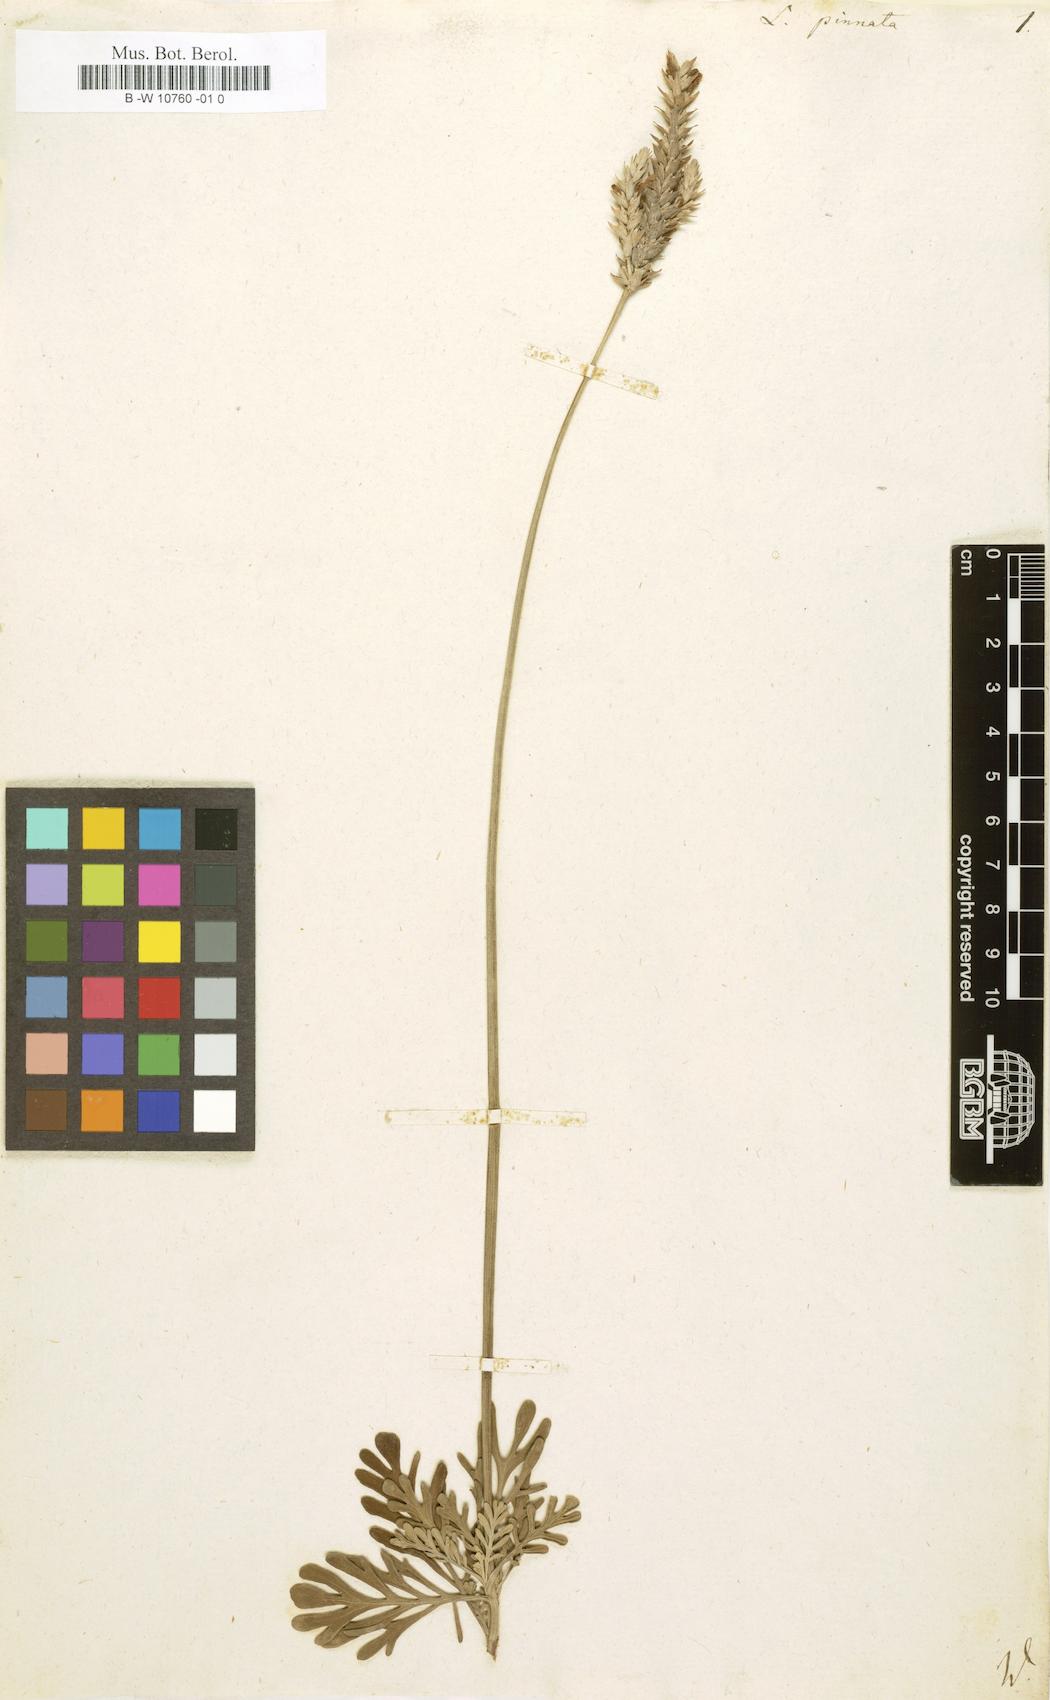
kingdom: Plantae
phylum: Tracheophyta
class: Magnoliopsida
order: Lamiales
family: Lamiaceae
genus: Lavandula
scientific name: Lavandula pinnata
